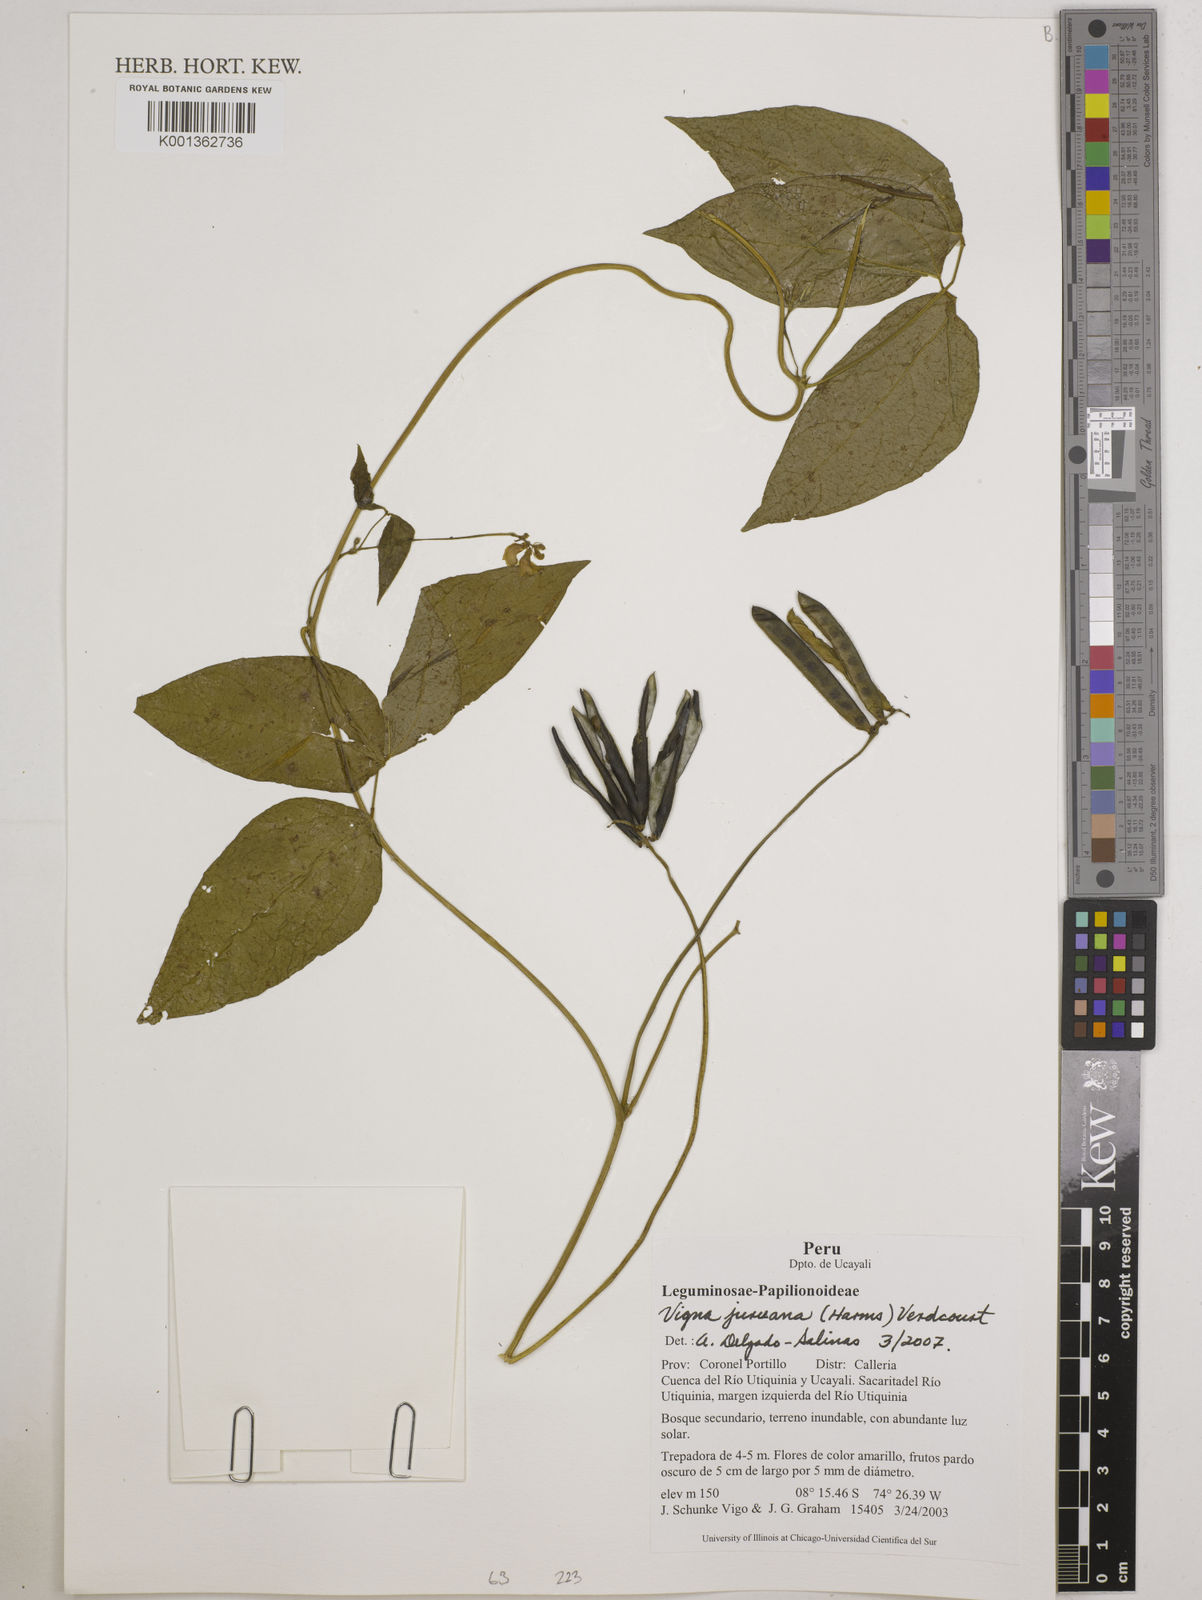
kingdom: Plantae
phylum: Tracheophyta
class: Magnoliopsida
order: Fabales
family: Fabaceae
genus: Vigna
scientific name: Vigna juruana
